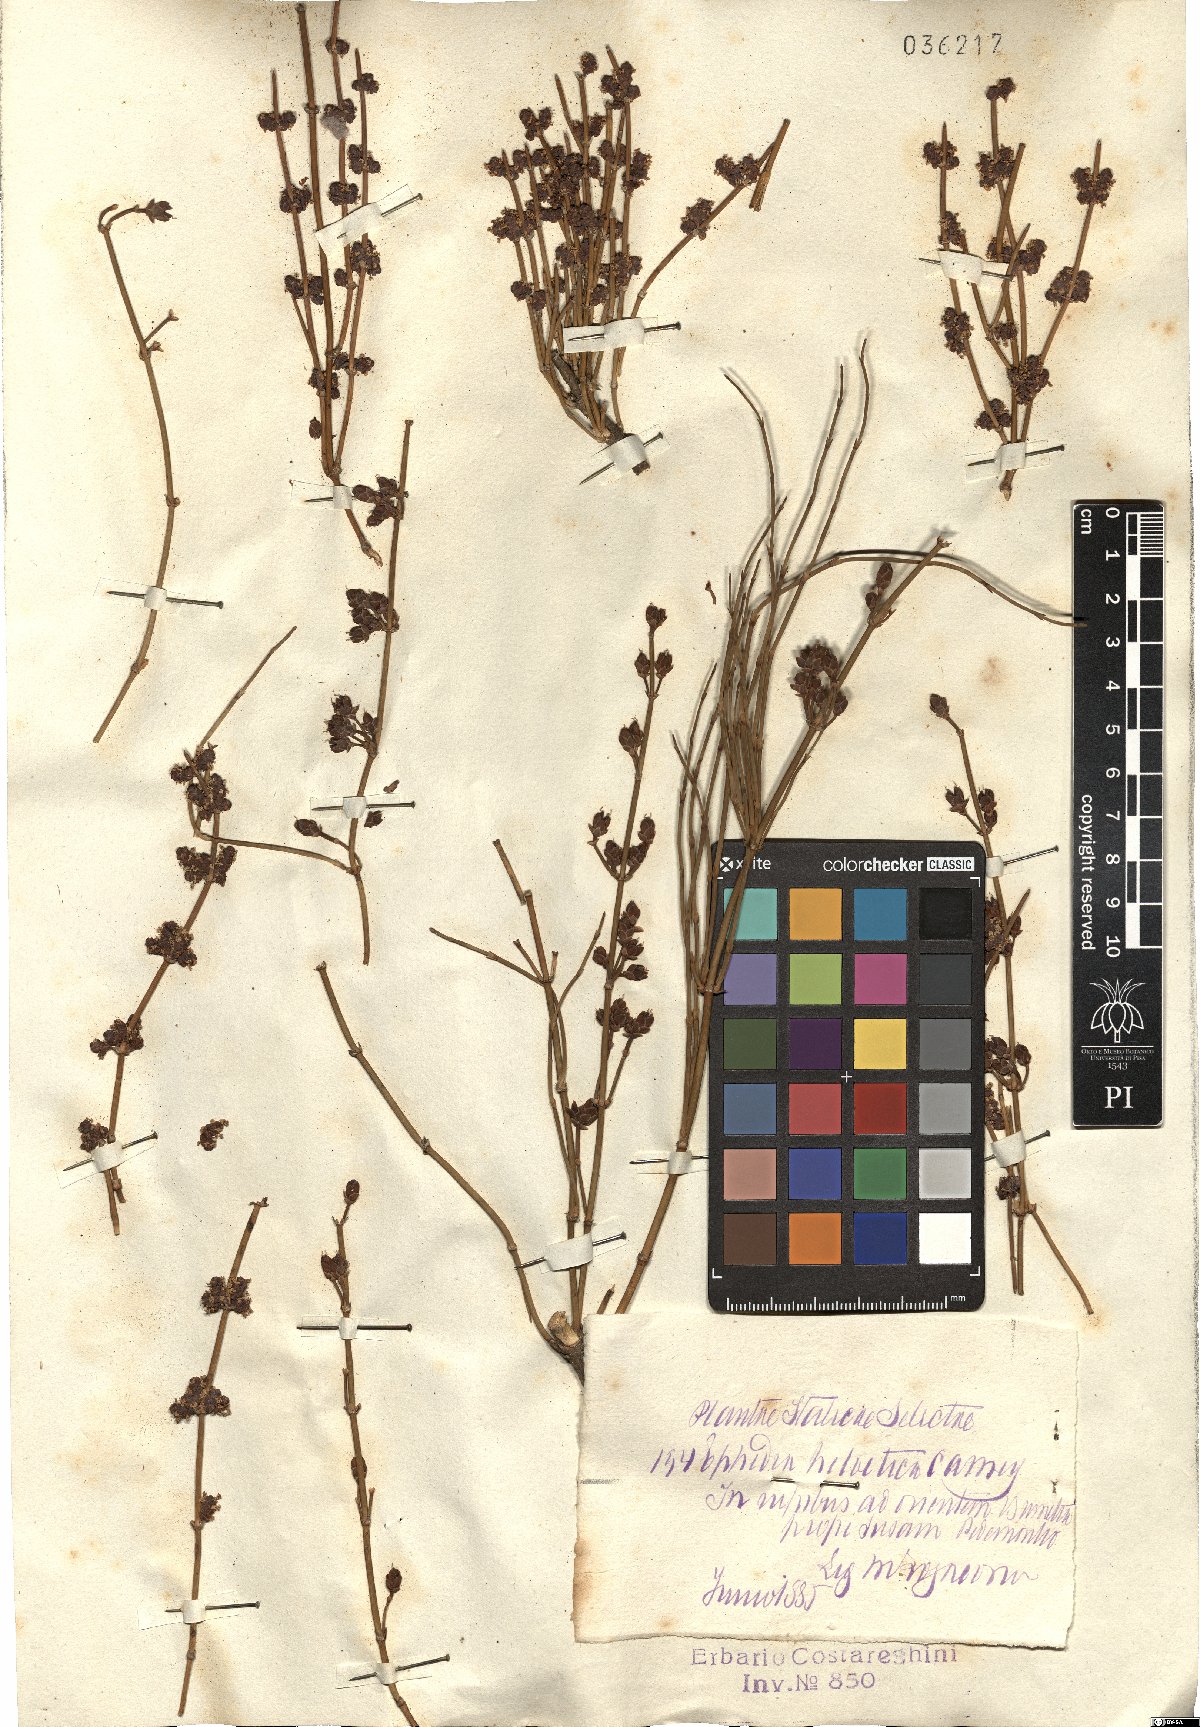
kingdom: Plantae
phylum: Tracheophyta
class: Gnetopsida
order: Ephedrales
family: Ephedraceae
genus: Ephedra
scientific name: Ephedra distachya
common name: Sea grape
